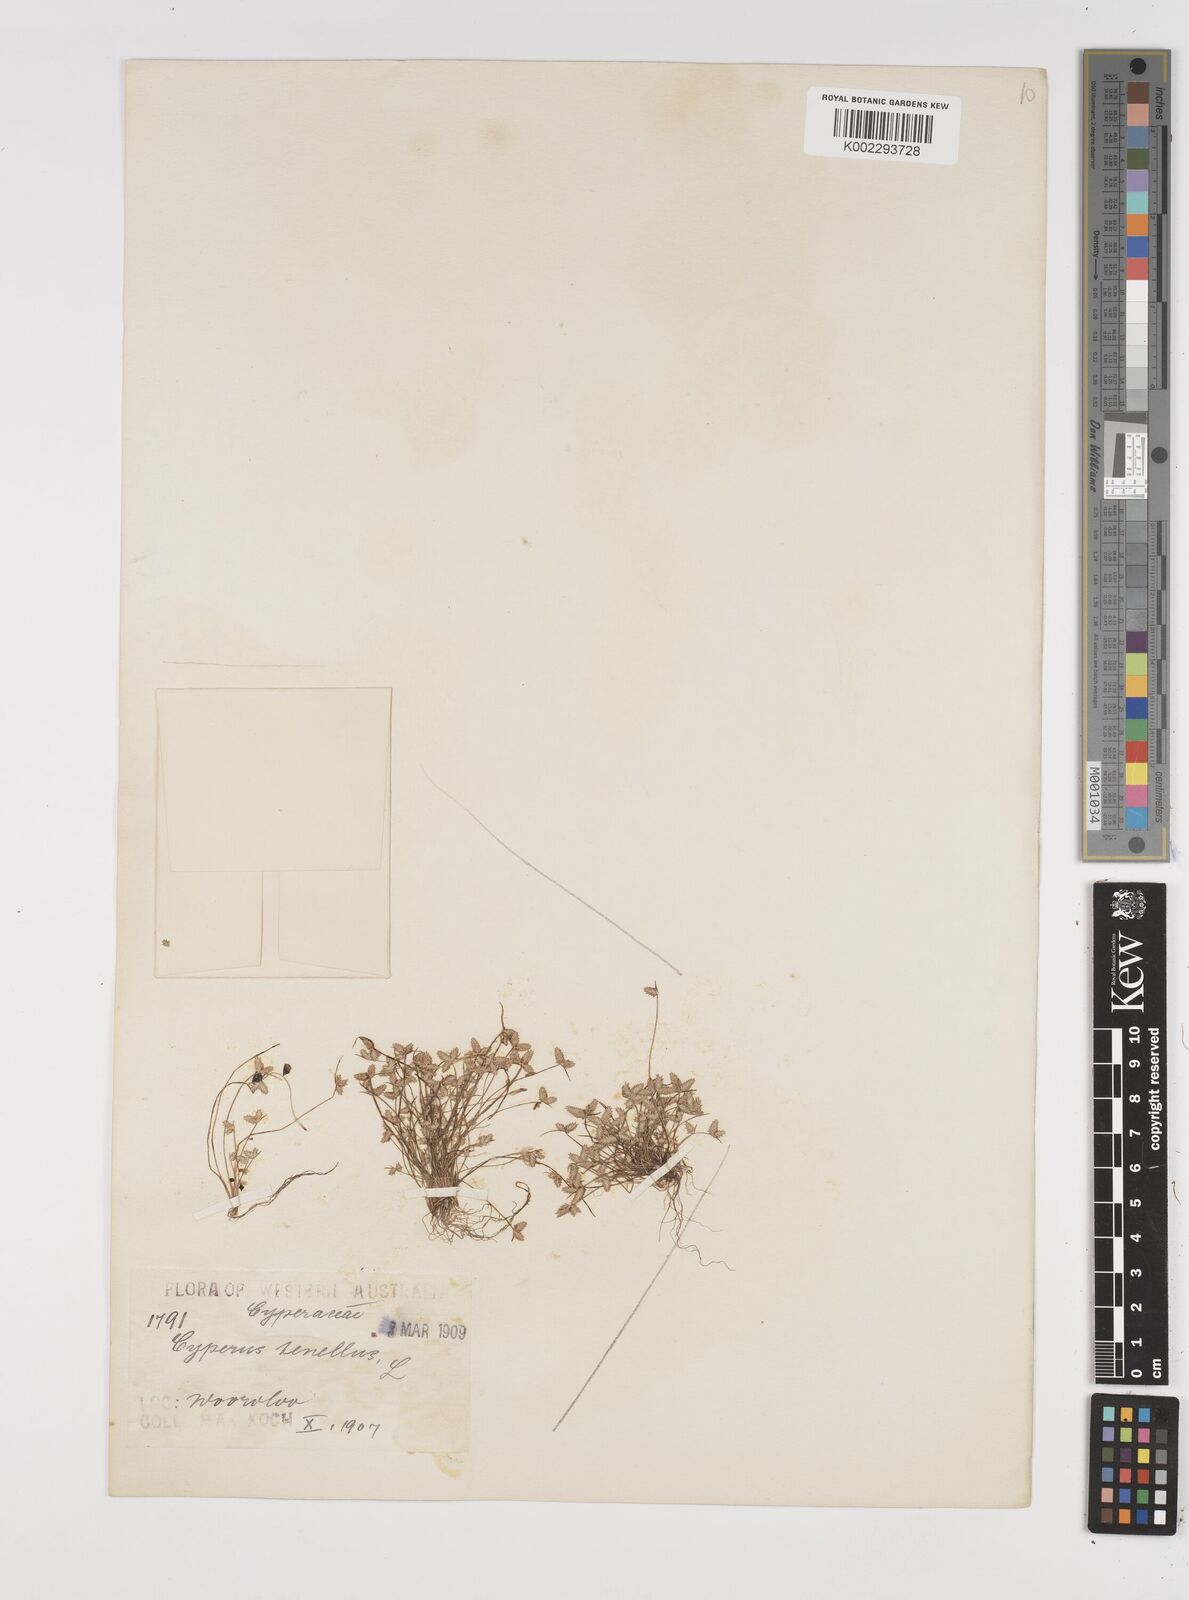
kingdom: Plantae
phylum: Tracheophyta
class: Liliopsida
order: Poales
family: Cyperaceae
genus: Isolepis
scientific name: Isolepis levynsiana
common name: Sedge
